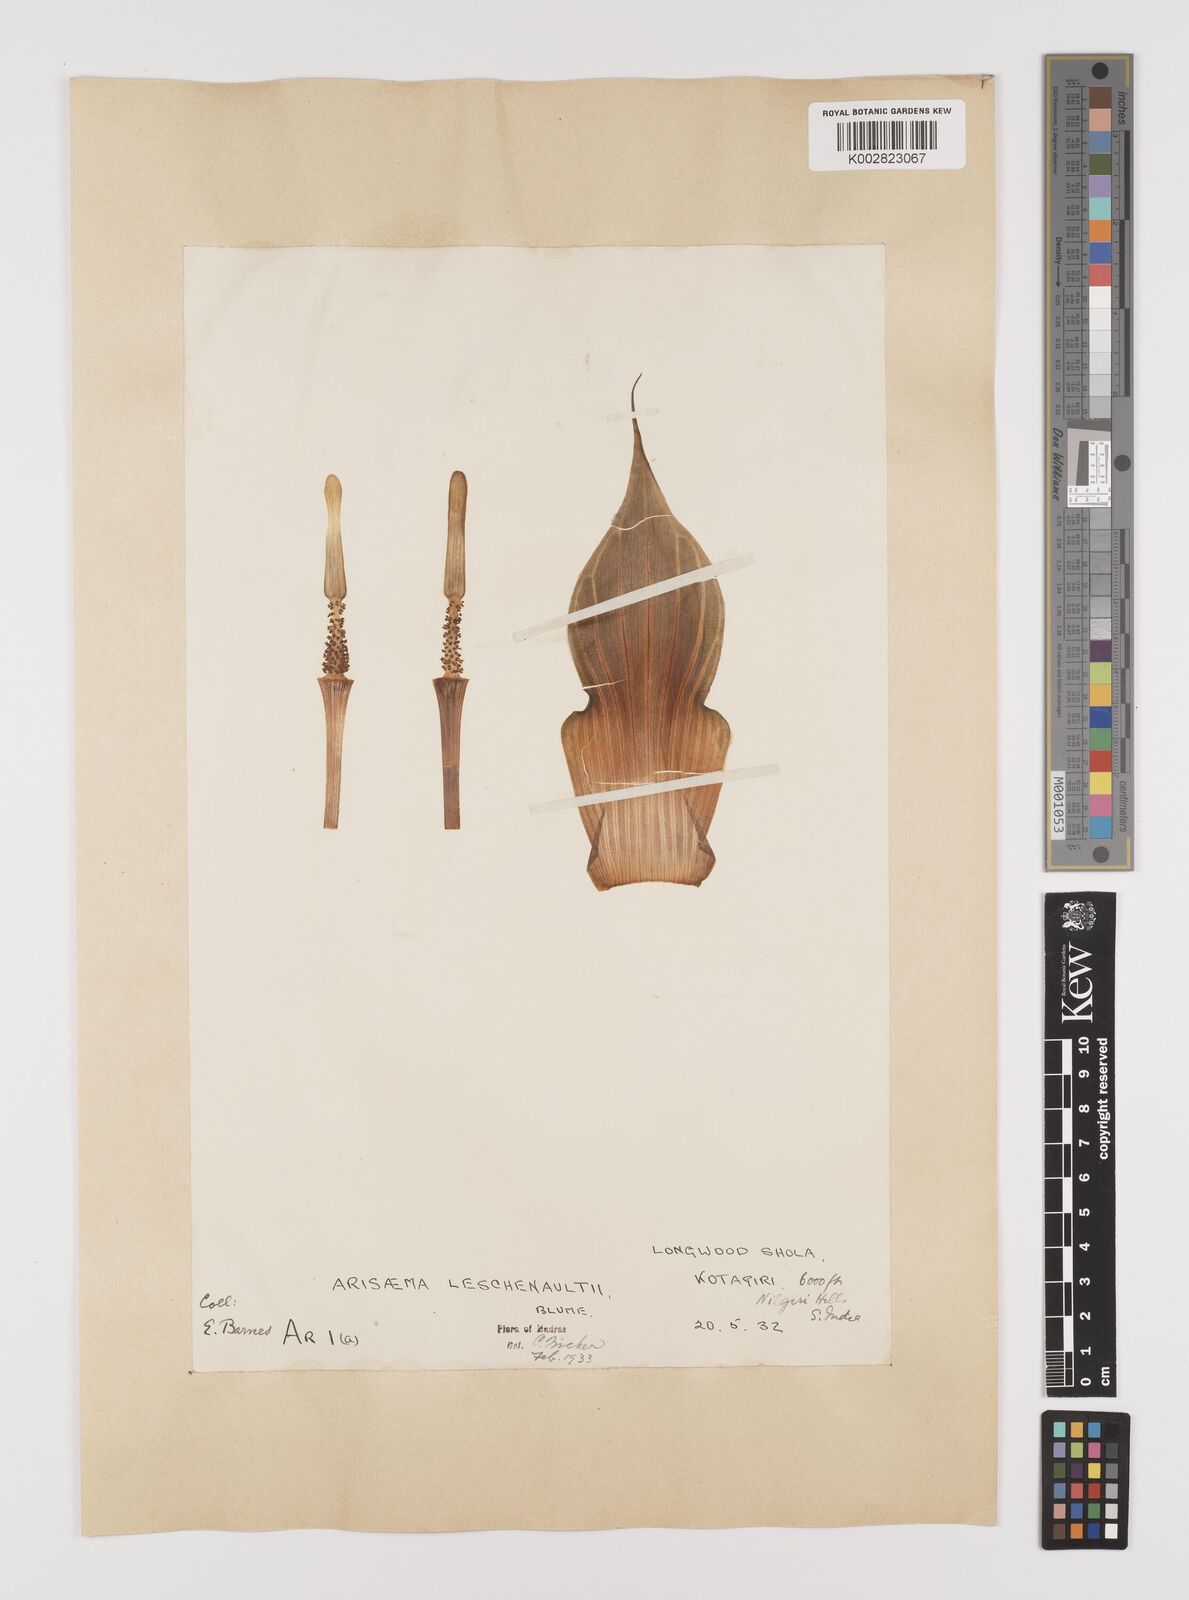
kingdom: Plantae
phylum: Tracheophyta
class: Liliopsida
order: Alismatales
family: Araceae
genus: Arisaema
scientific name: Arisaema leschenaultii
